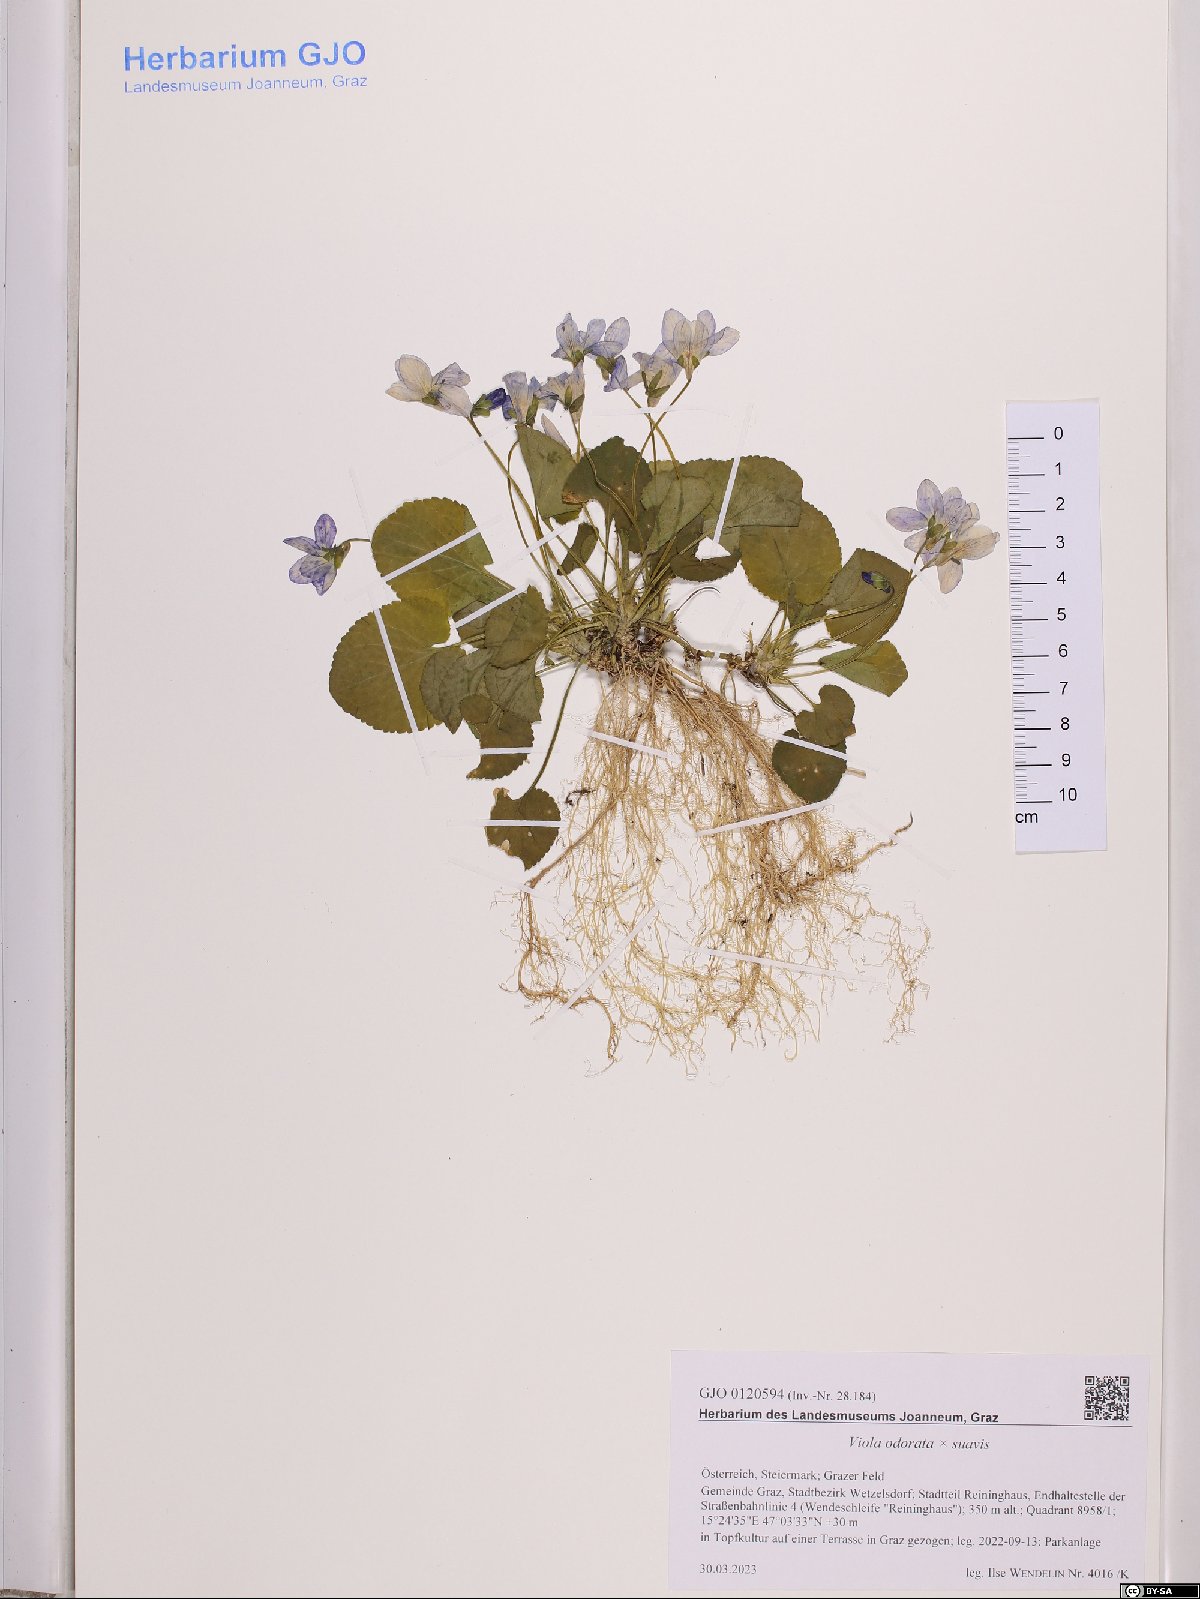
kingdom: Plantae
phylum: Tracheophyta
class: Magnoliopsida
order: Malpighiales
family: Violaceae
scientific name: Violaceae
